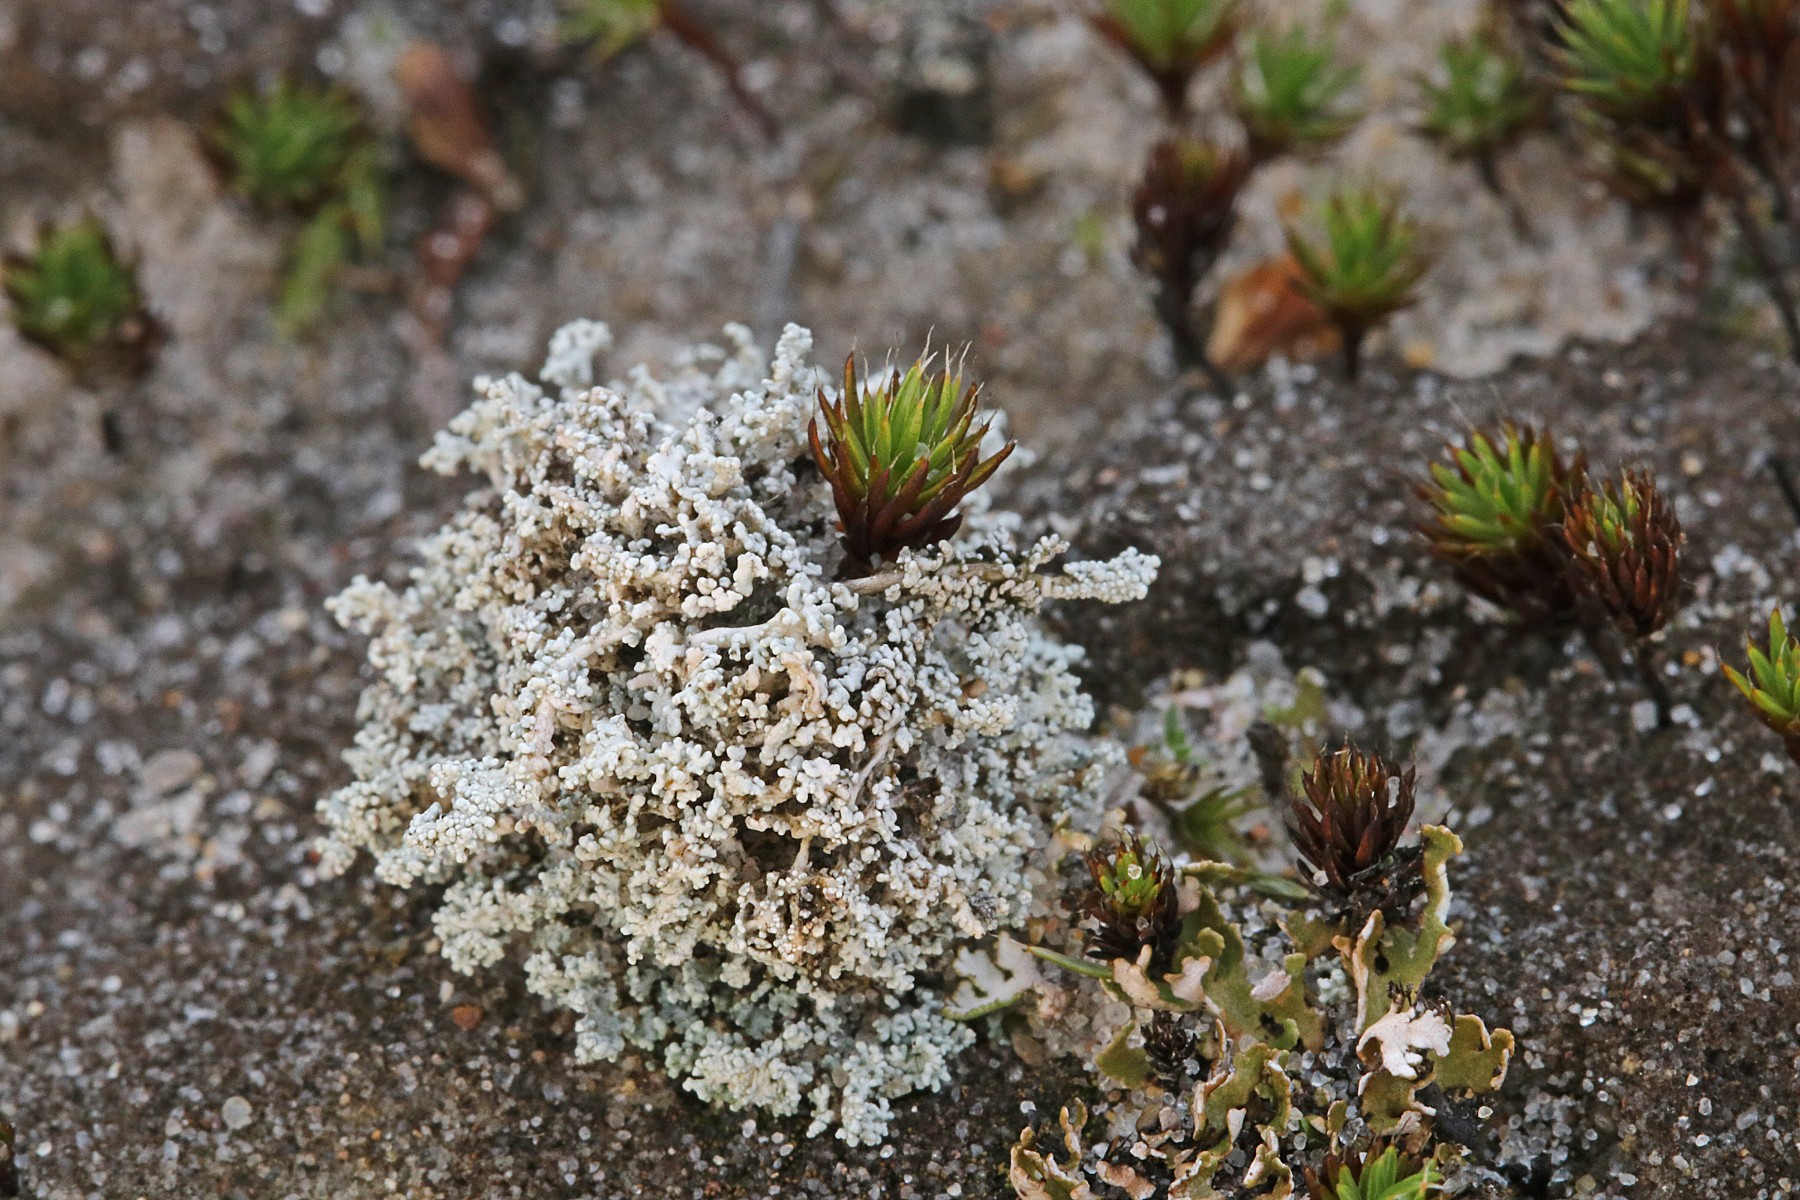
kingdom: Fungi
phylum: Ascomycota
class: Lecanoromycetes
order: Lecanorales
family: Stereocaulaceae
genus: Stereocaulon
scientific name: Stereocaulon condensatum
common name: lav korallav
